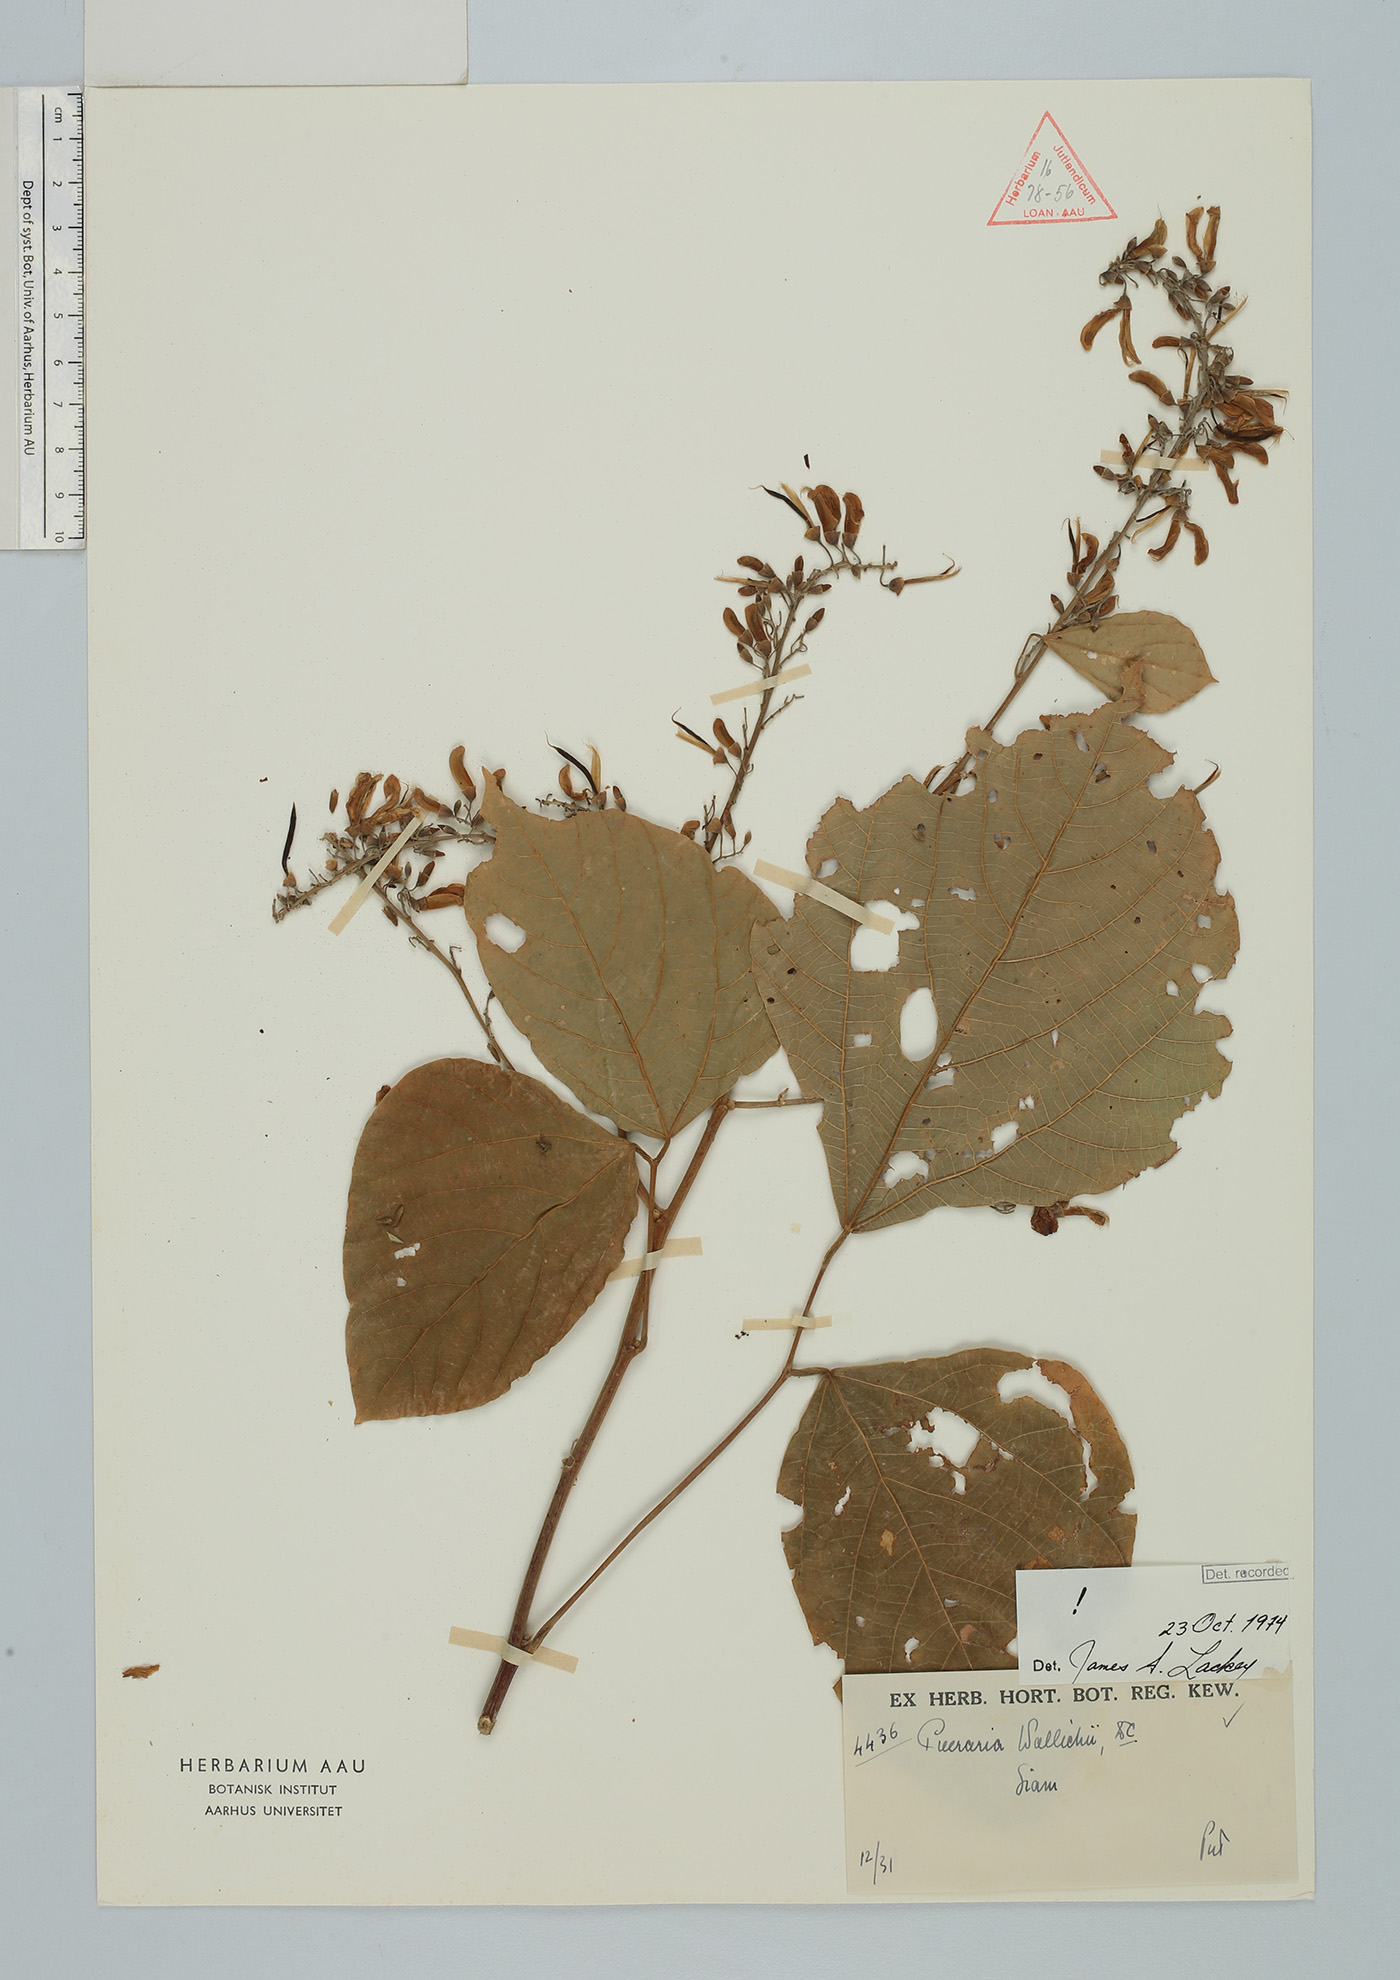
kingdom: Plantae
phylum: Tracheophyta
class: Magnoliopsida
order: Fabales
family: Fabaceae
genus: Haymondia
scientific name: Haymondia wallichii
